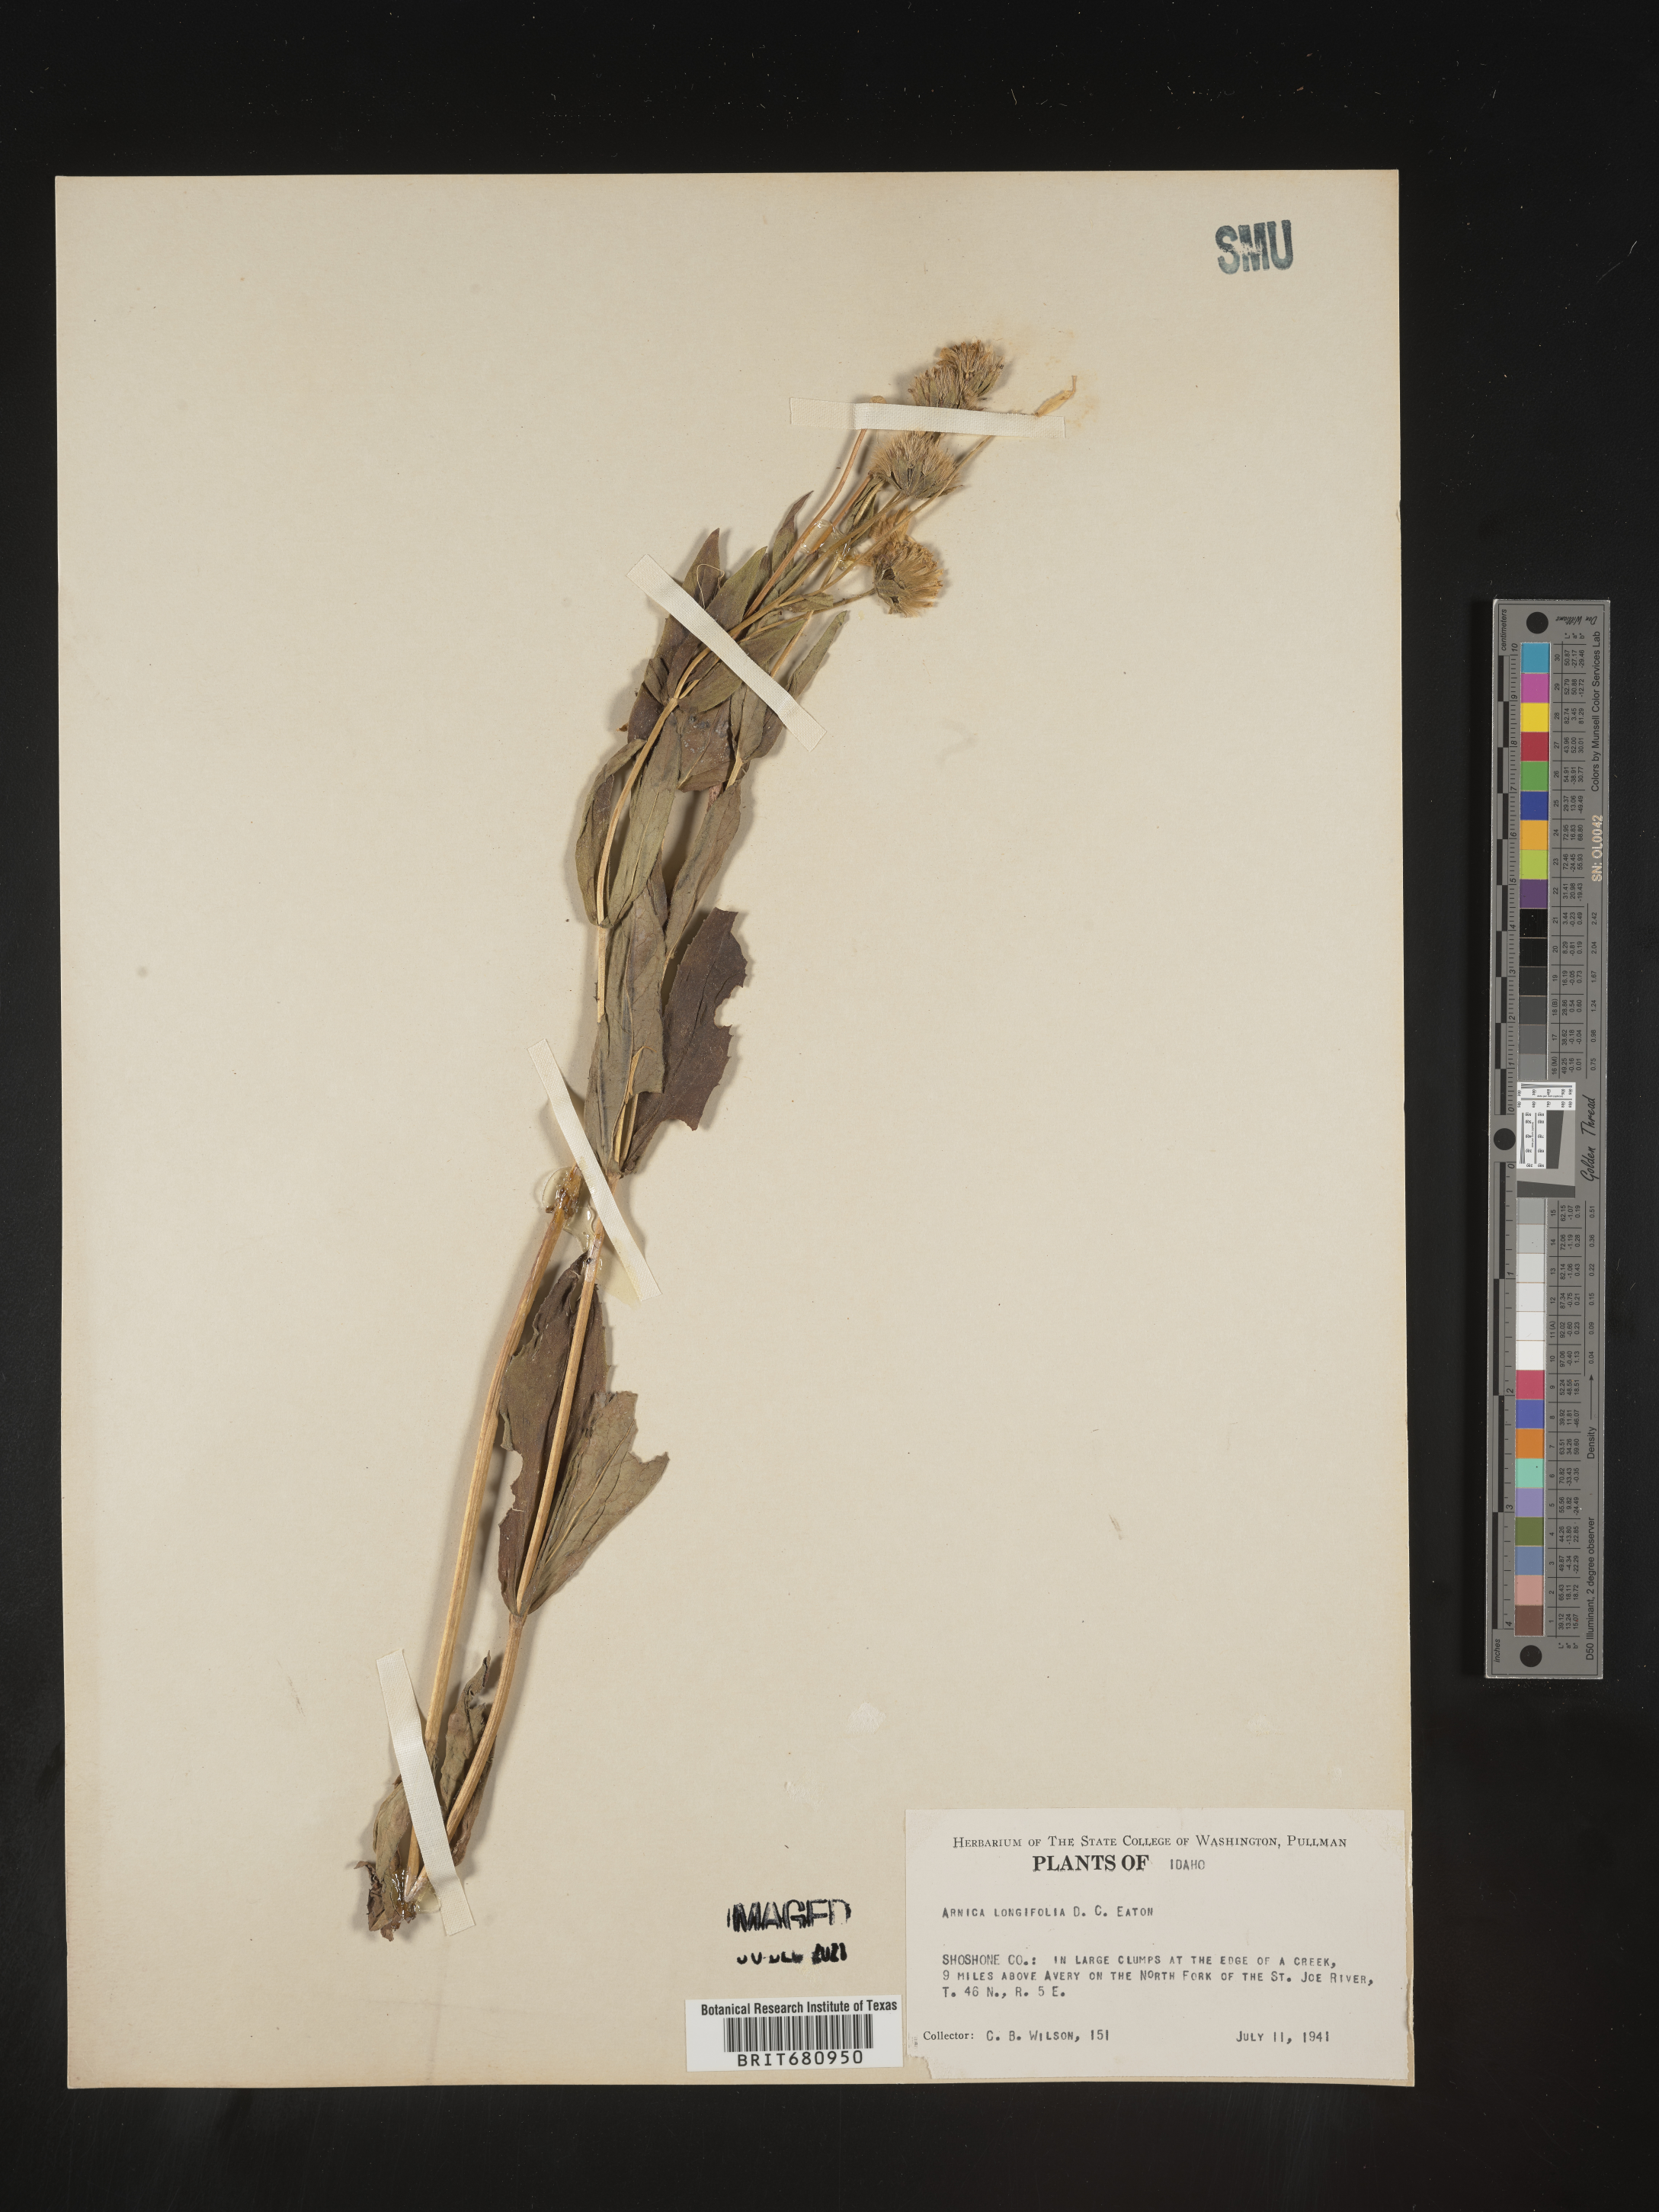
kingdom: Plantae
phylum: Tracheophyta
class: Magnoliopsida
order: Asterales
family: Asteraceae
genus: Arnica
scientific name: Arnica longifolia
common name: Spear-leaf arnica
